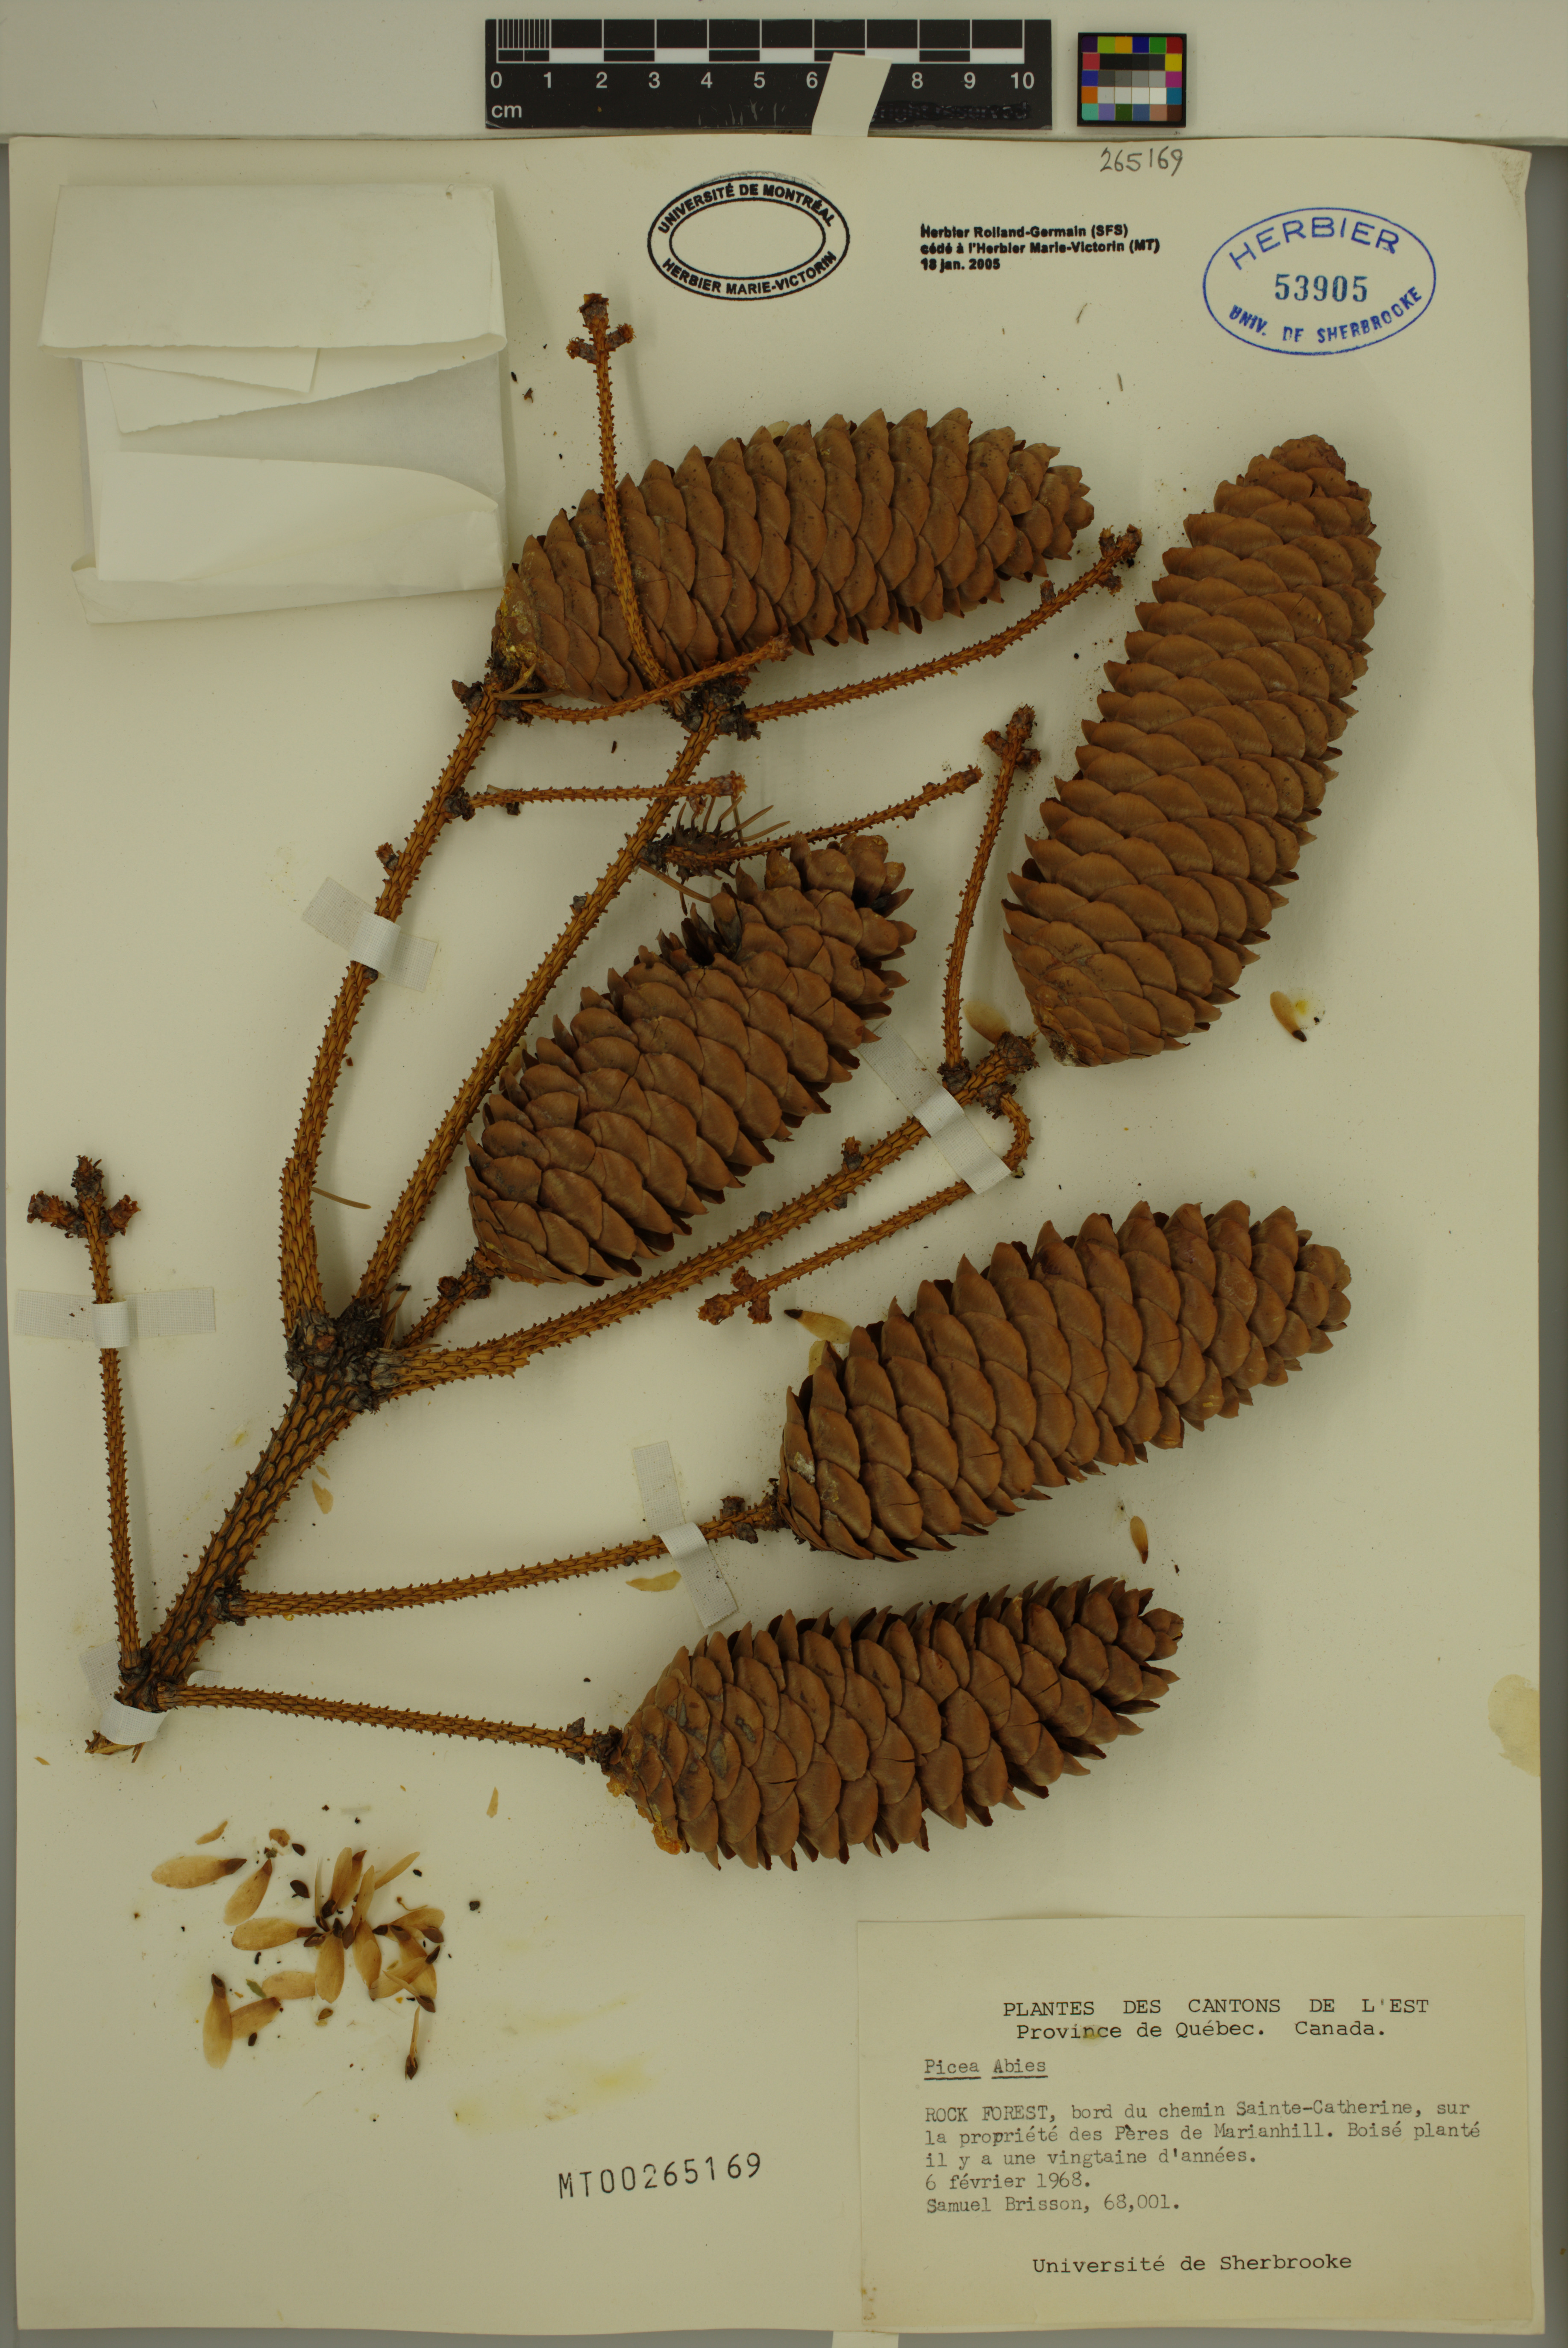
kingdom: Plantae
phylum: Tracheophyta
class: Pinopsida
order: Pinales
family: Pinaceae
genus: Picea
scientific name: Picea abies
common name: Norway spruce
